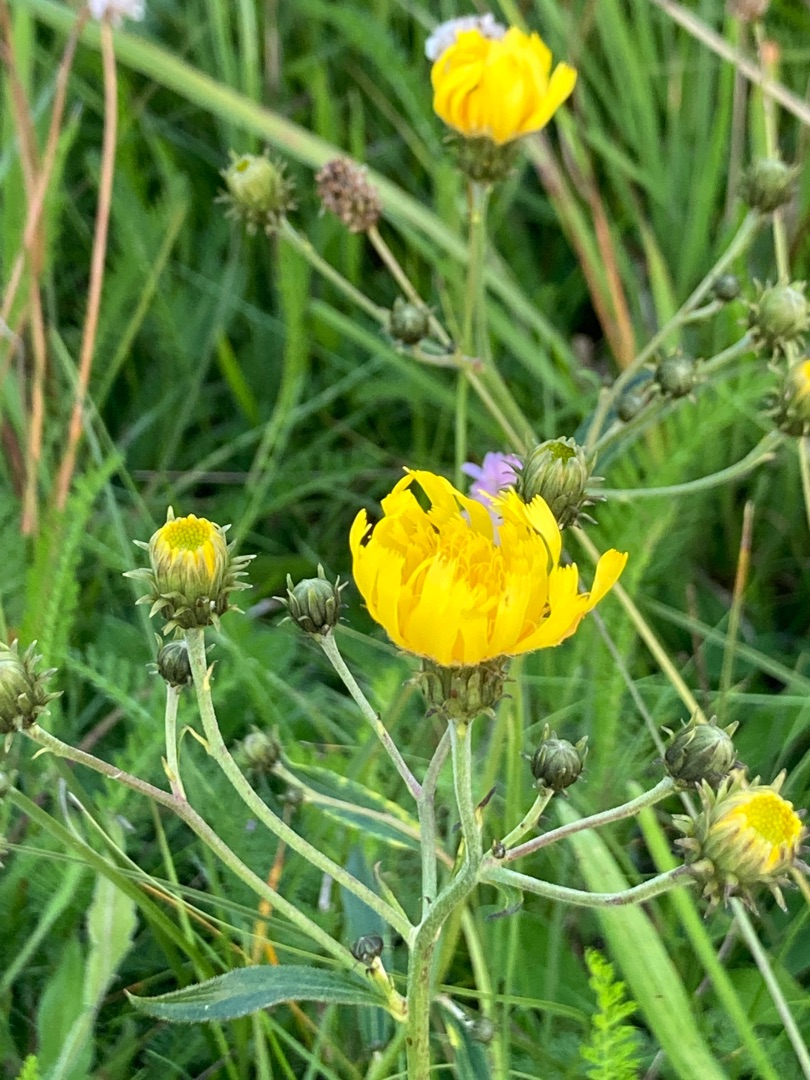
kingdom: Plantae
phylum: Tracheophyta
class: Magnoliopsida
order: Asterales
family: Asteraceae
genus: Hieracium
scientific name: Hieracium umbellatum
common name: Smalbladet høgeurt
